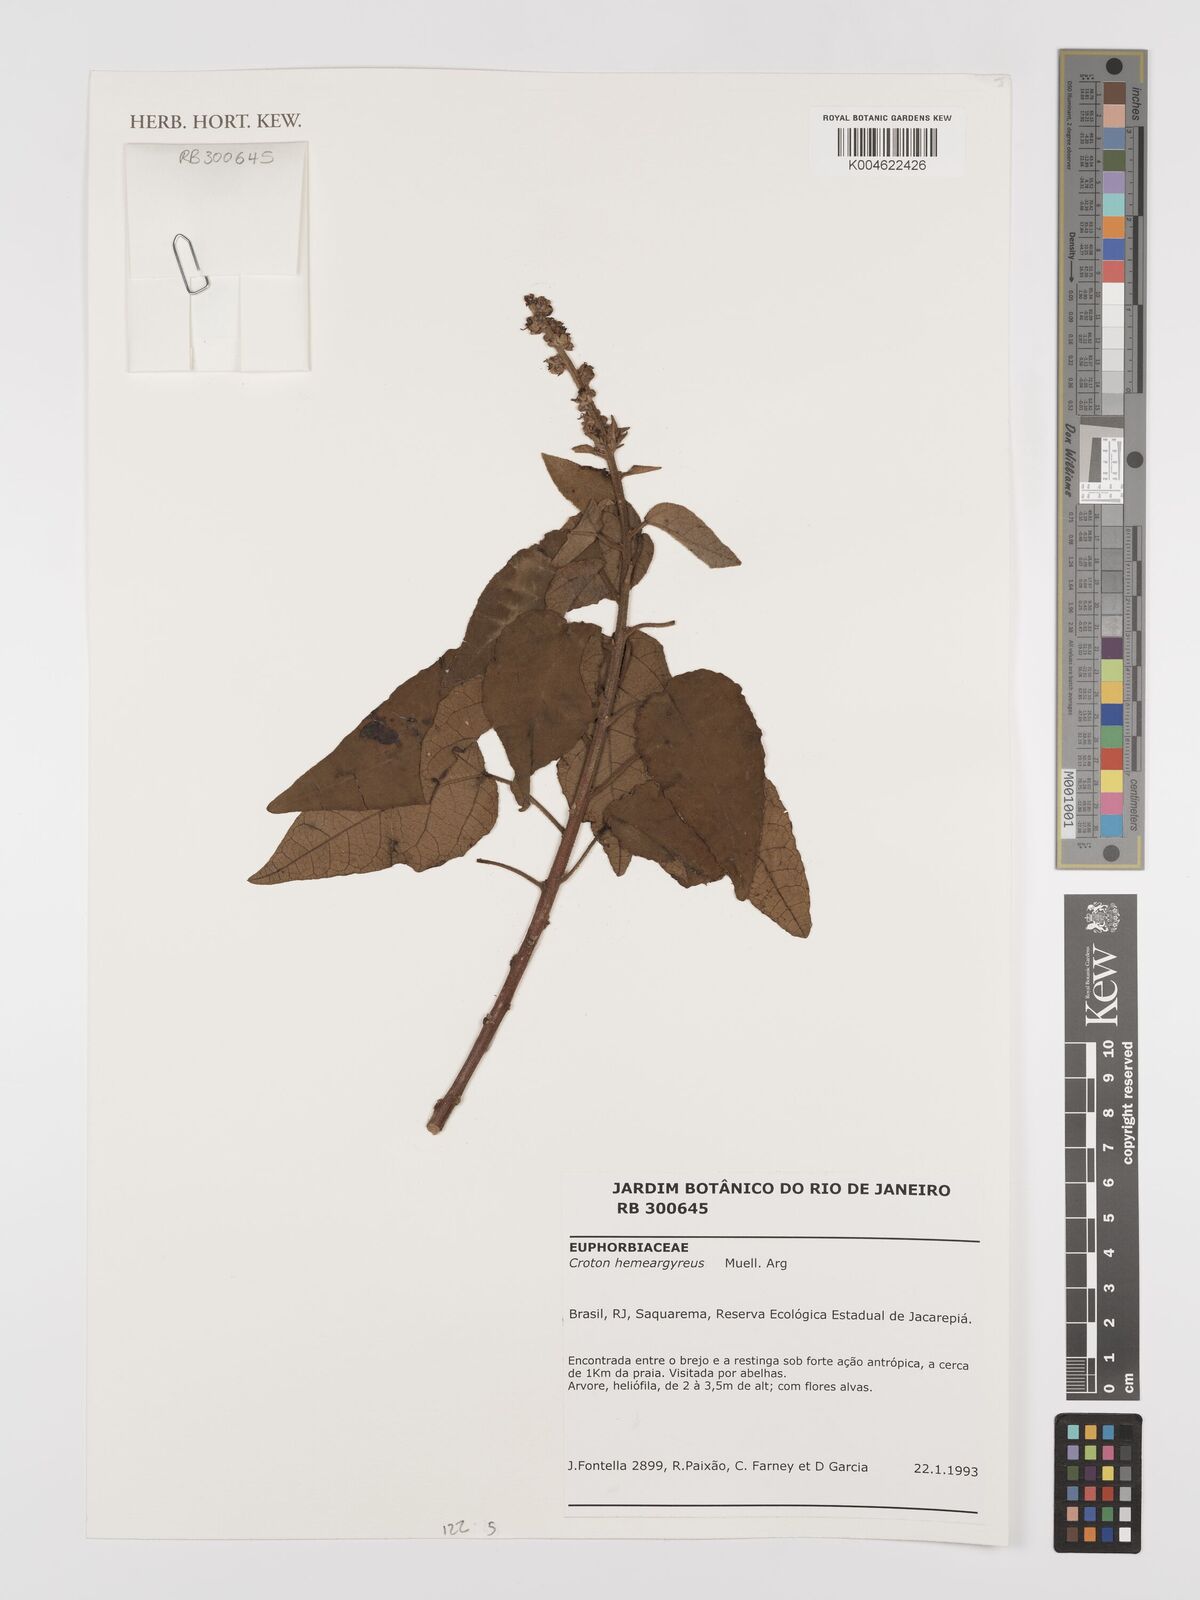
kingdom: Plantae
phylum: Tracheophyta
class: Magnoliopsida
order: Malpighiales
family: Euphorbiaceae
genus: Croton
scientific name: Croton hemiargyreus
